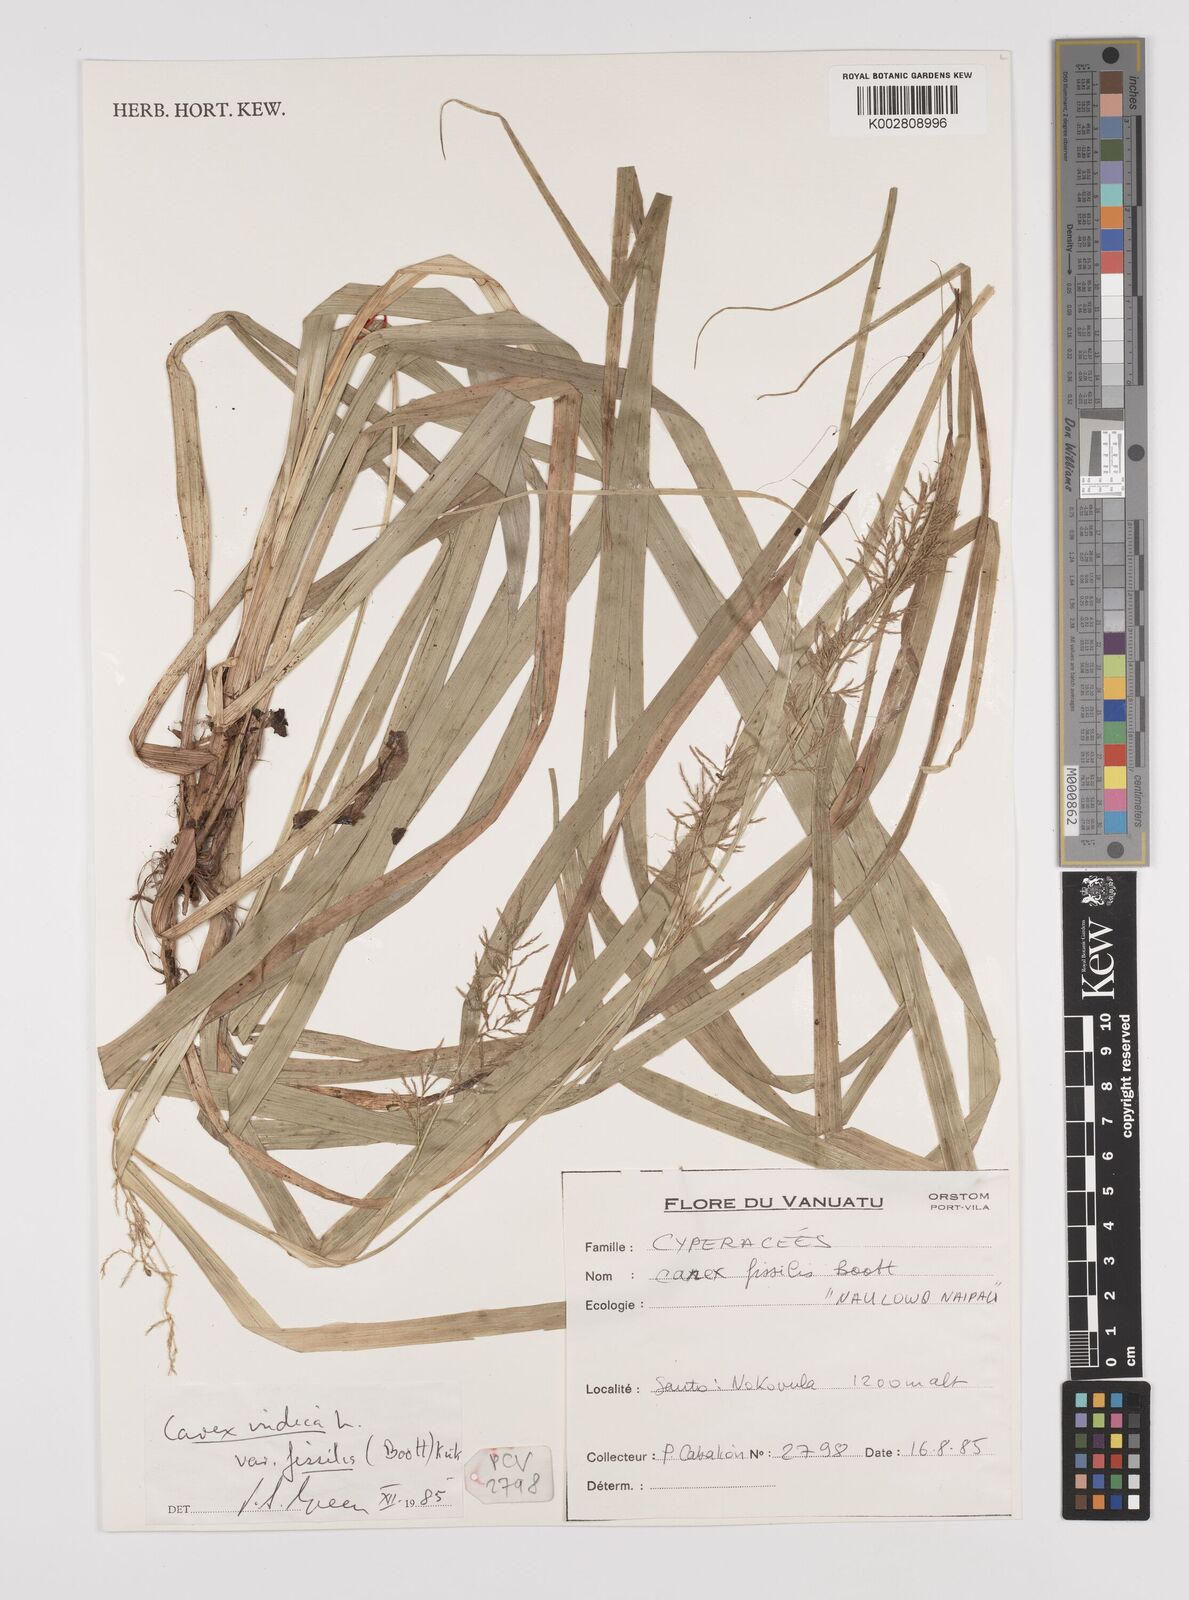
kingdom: Plantae
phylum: Tracheophyta
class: Liliopsida
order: Poales
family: Cyperaceae
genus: Carex
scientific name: Carex indica
